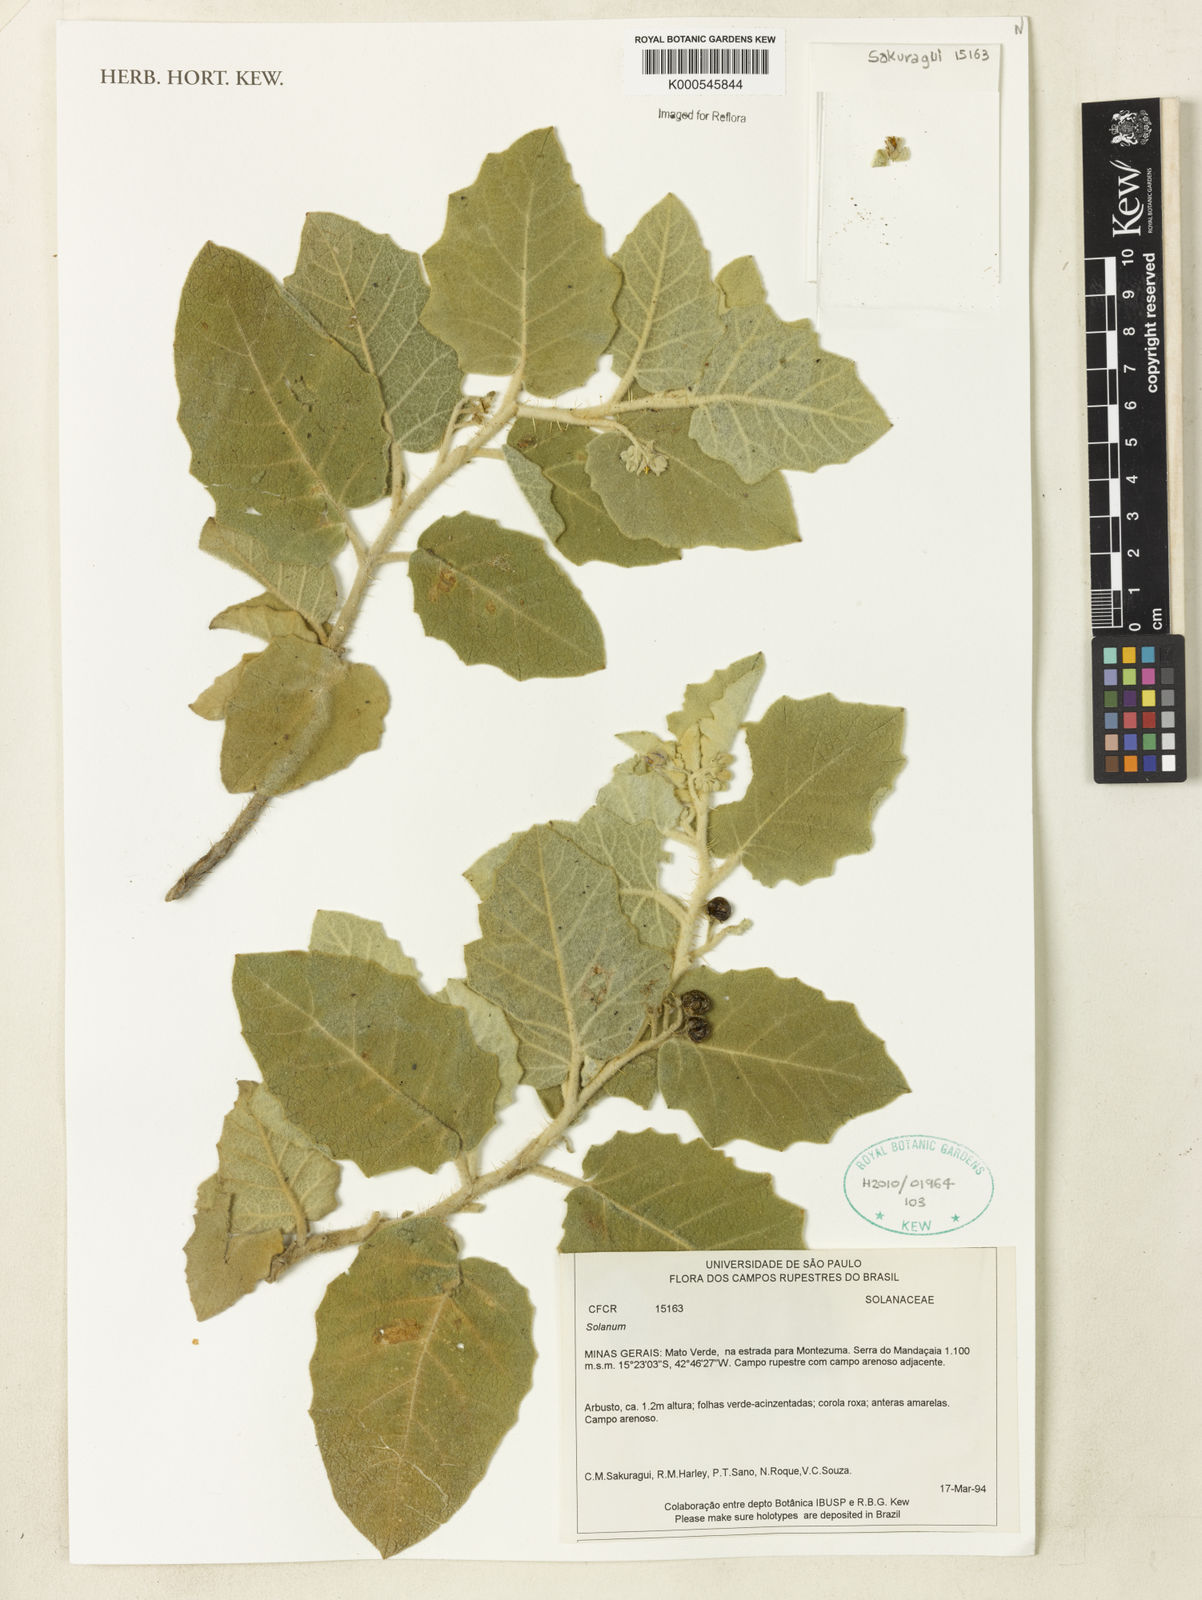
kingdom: Plantae
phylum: Tracheophyta
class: Magnoliopsida
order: Solanales
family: Solanaceae
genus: Solanum
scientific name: Solanum
